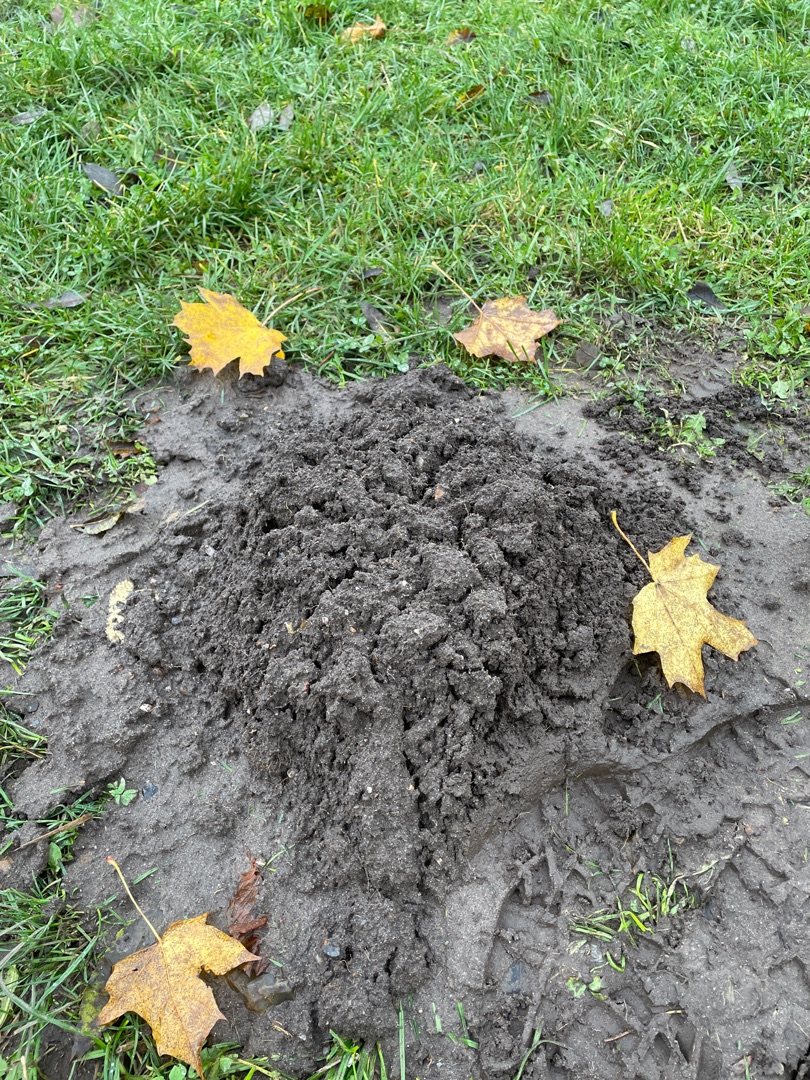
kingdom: Animalia
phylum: Chordata
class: Mammalia
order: Soricomorpha
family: Talpidae
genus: Talpa
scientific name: Talpa europaea
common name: Muldvarp
